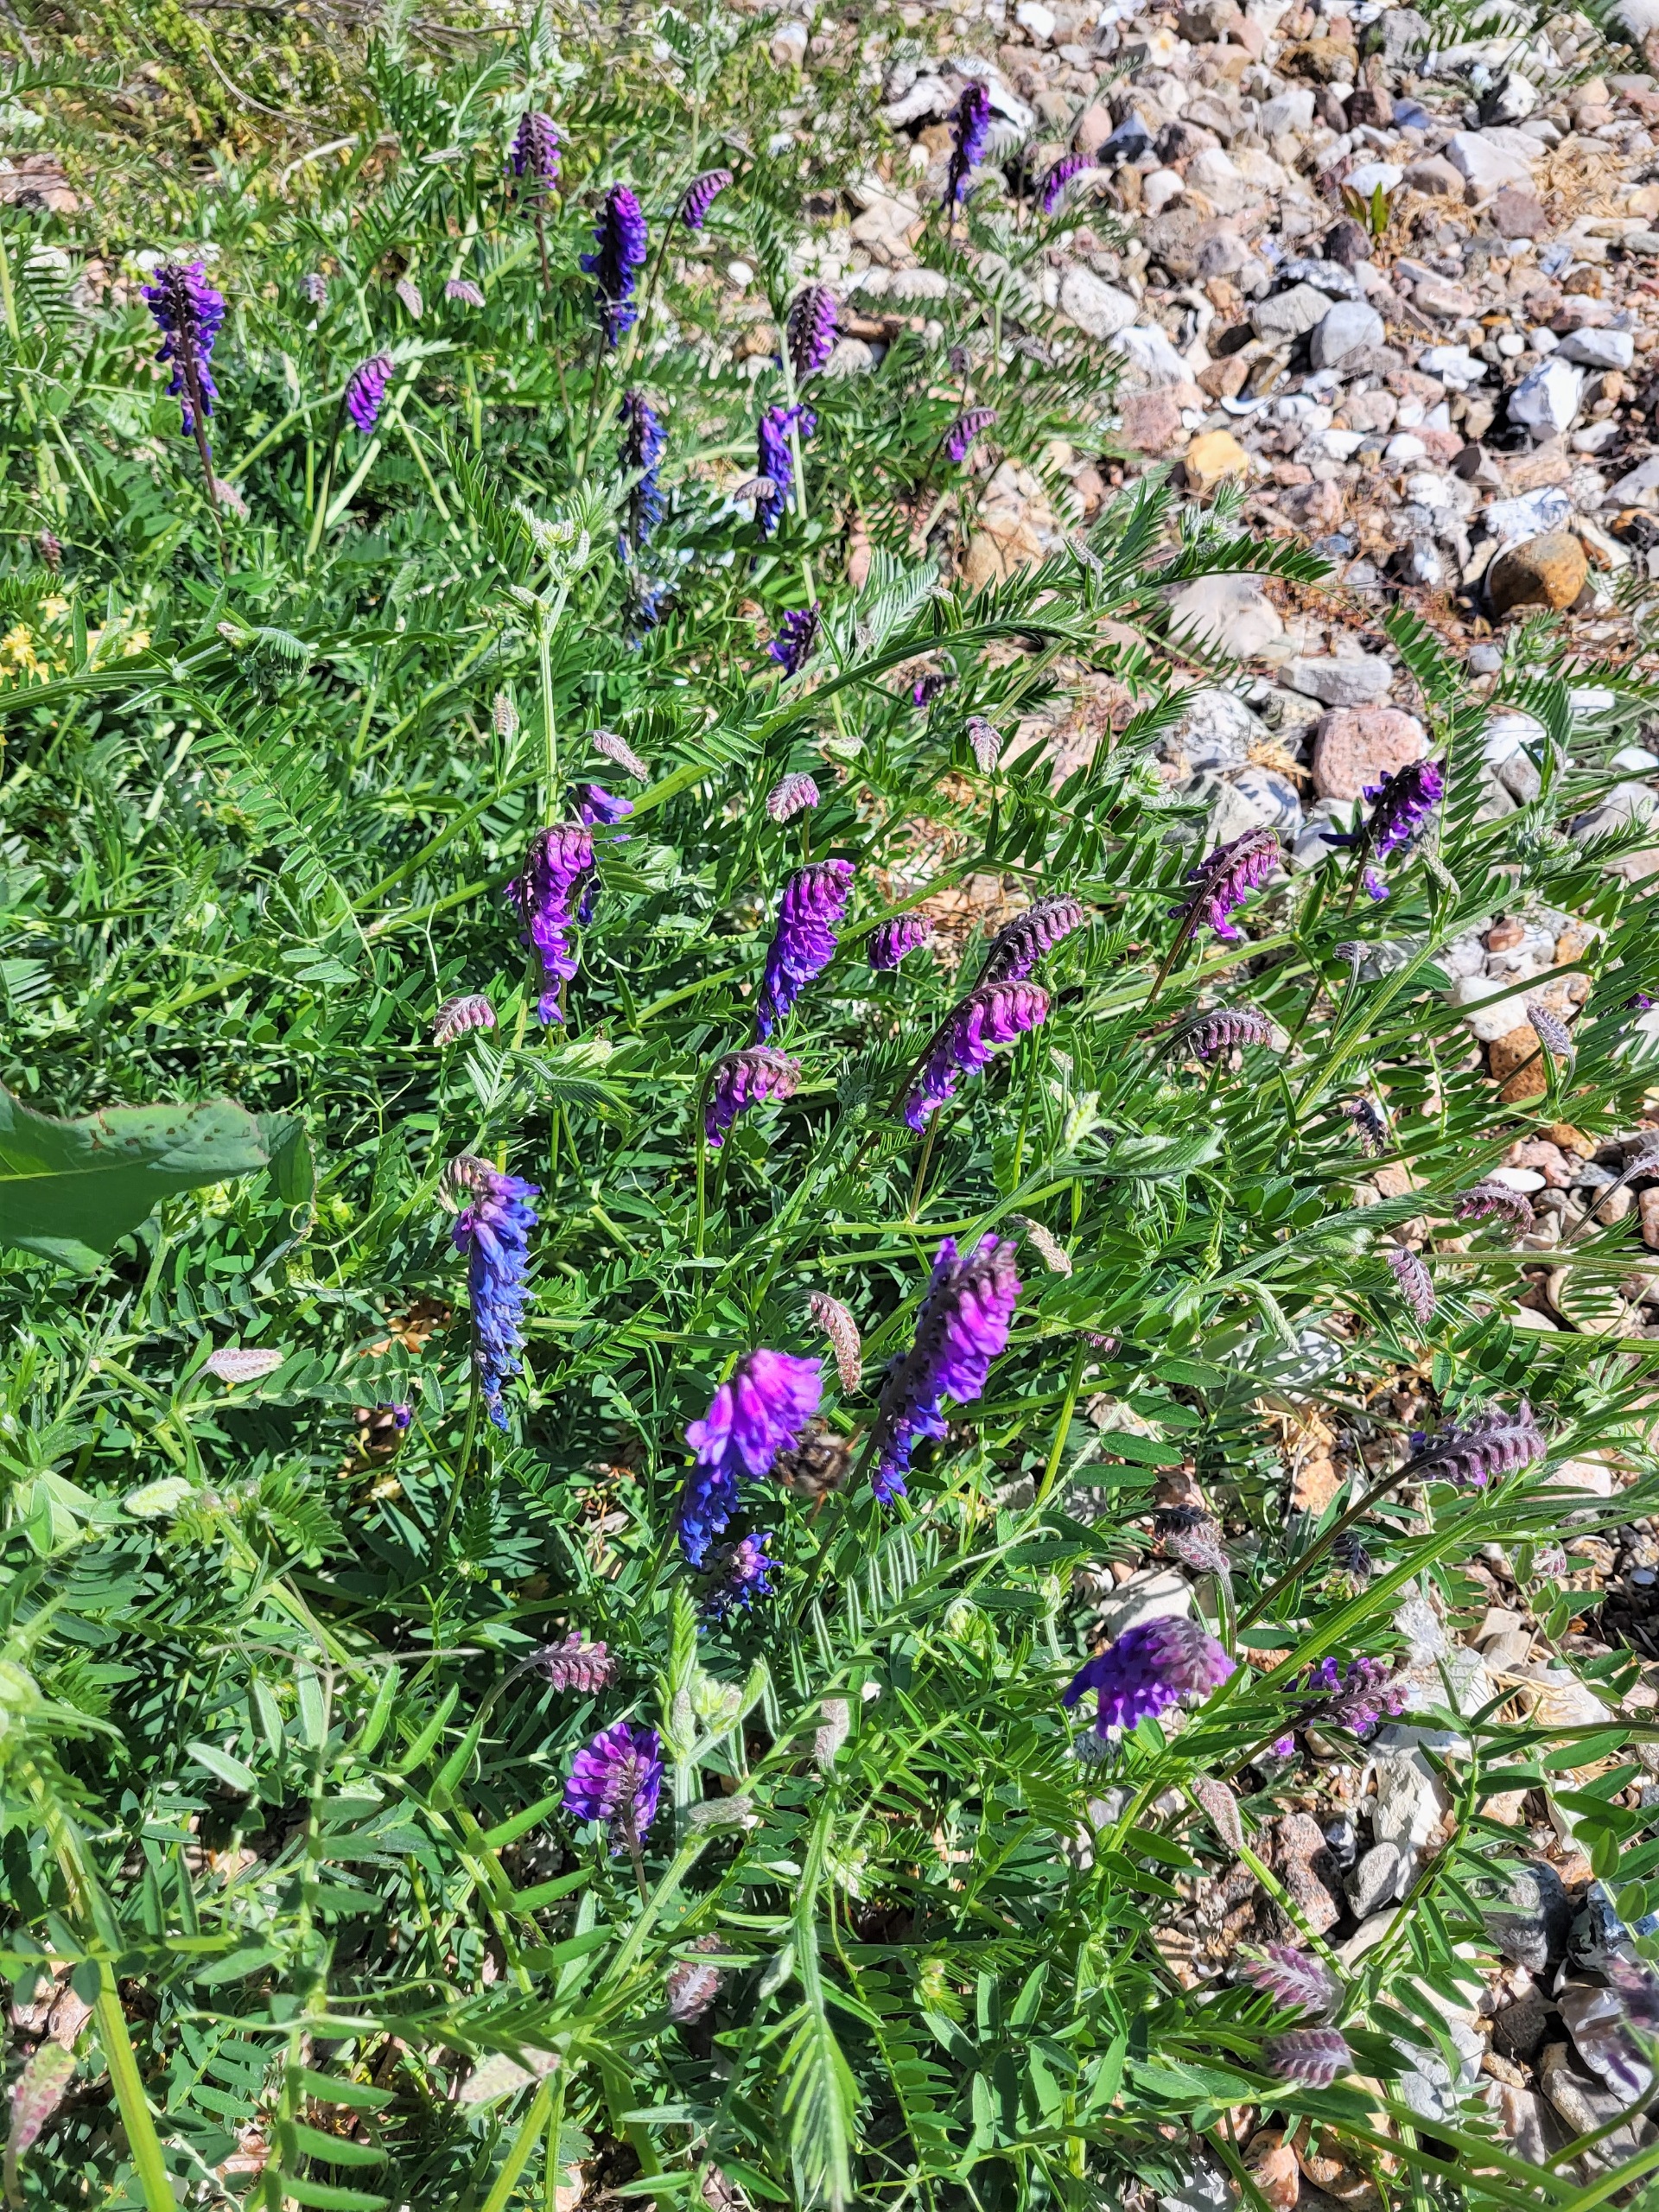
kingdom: Plantae
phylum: Tracheophyta
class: Magnoliopsida
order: Fabales
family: Fabaceae
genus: Vicia
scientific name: Vicia cracca
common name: Muse-vikke
